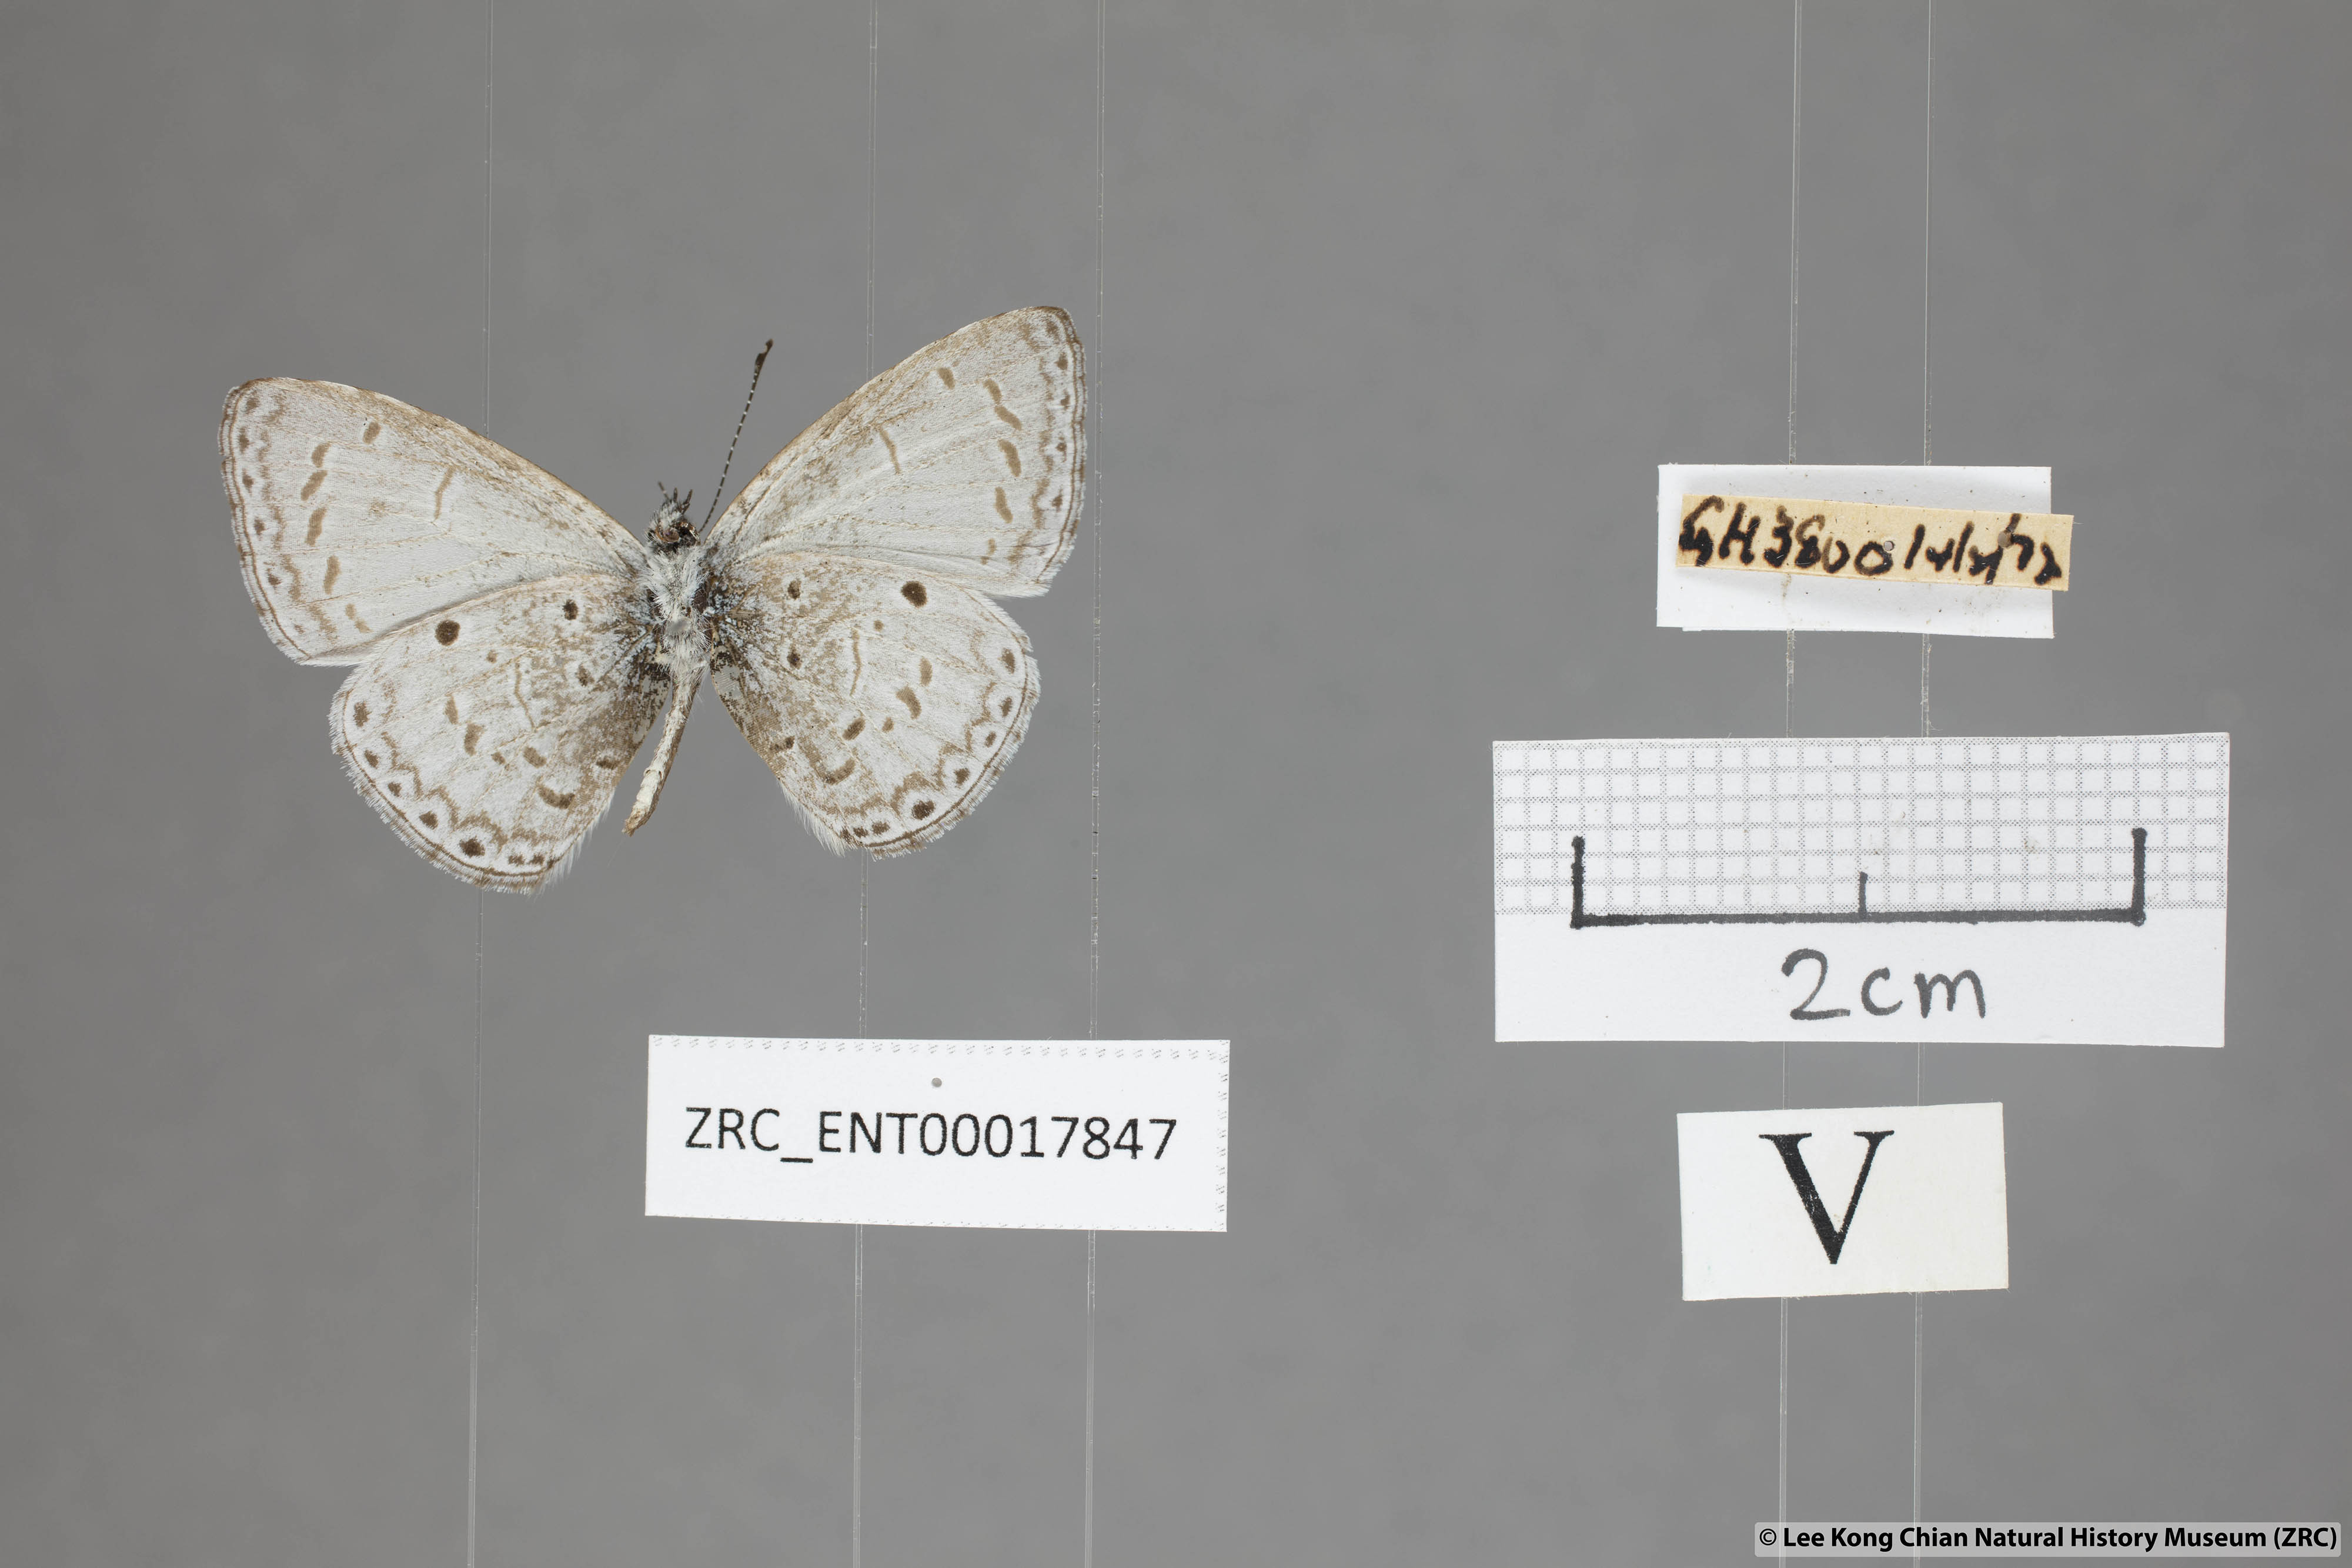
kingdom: Animalia
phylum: Arthropoda
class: Insecta
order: Lepidoptera
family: Lycaenidae
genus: Udara
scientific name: Udara
